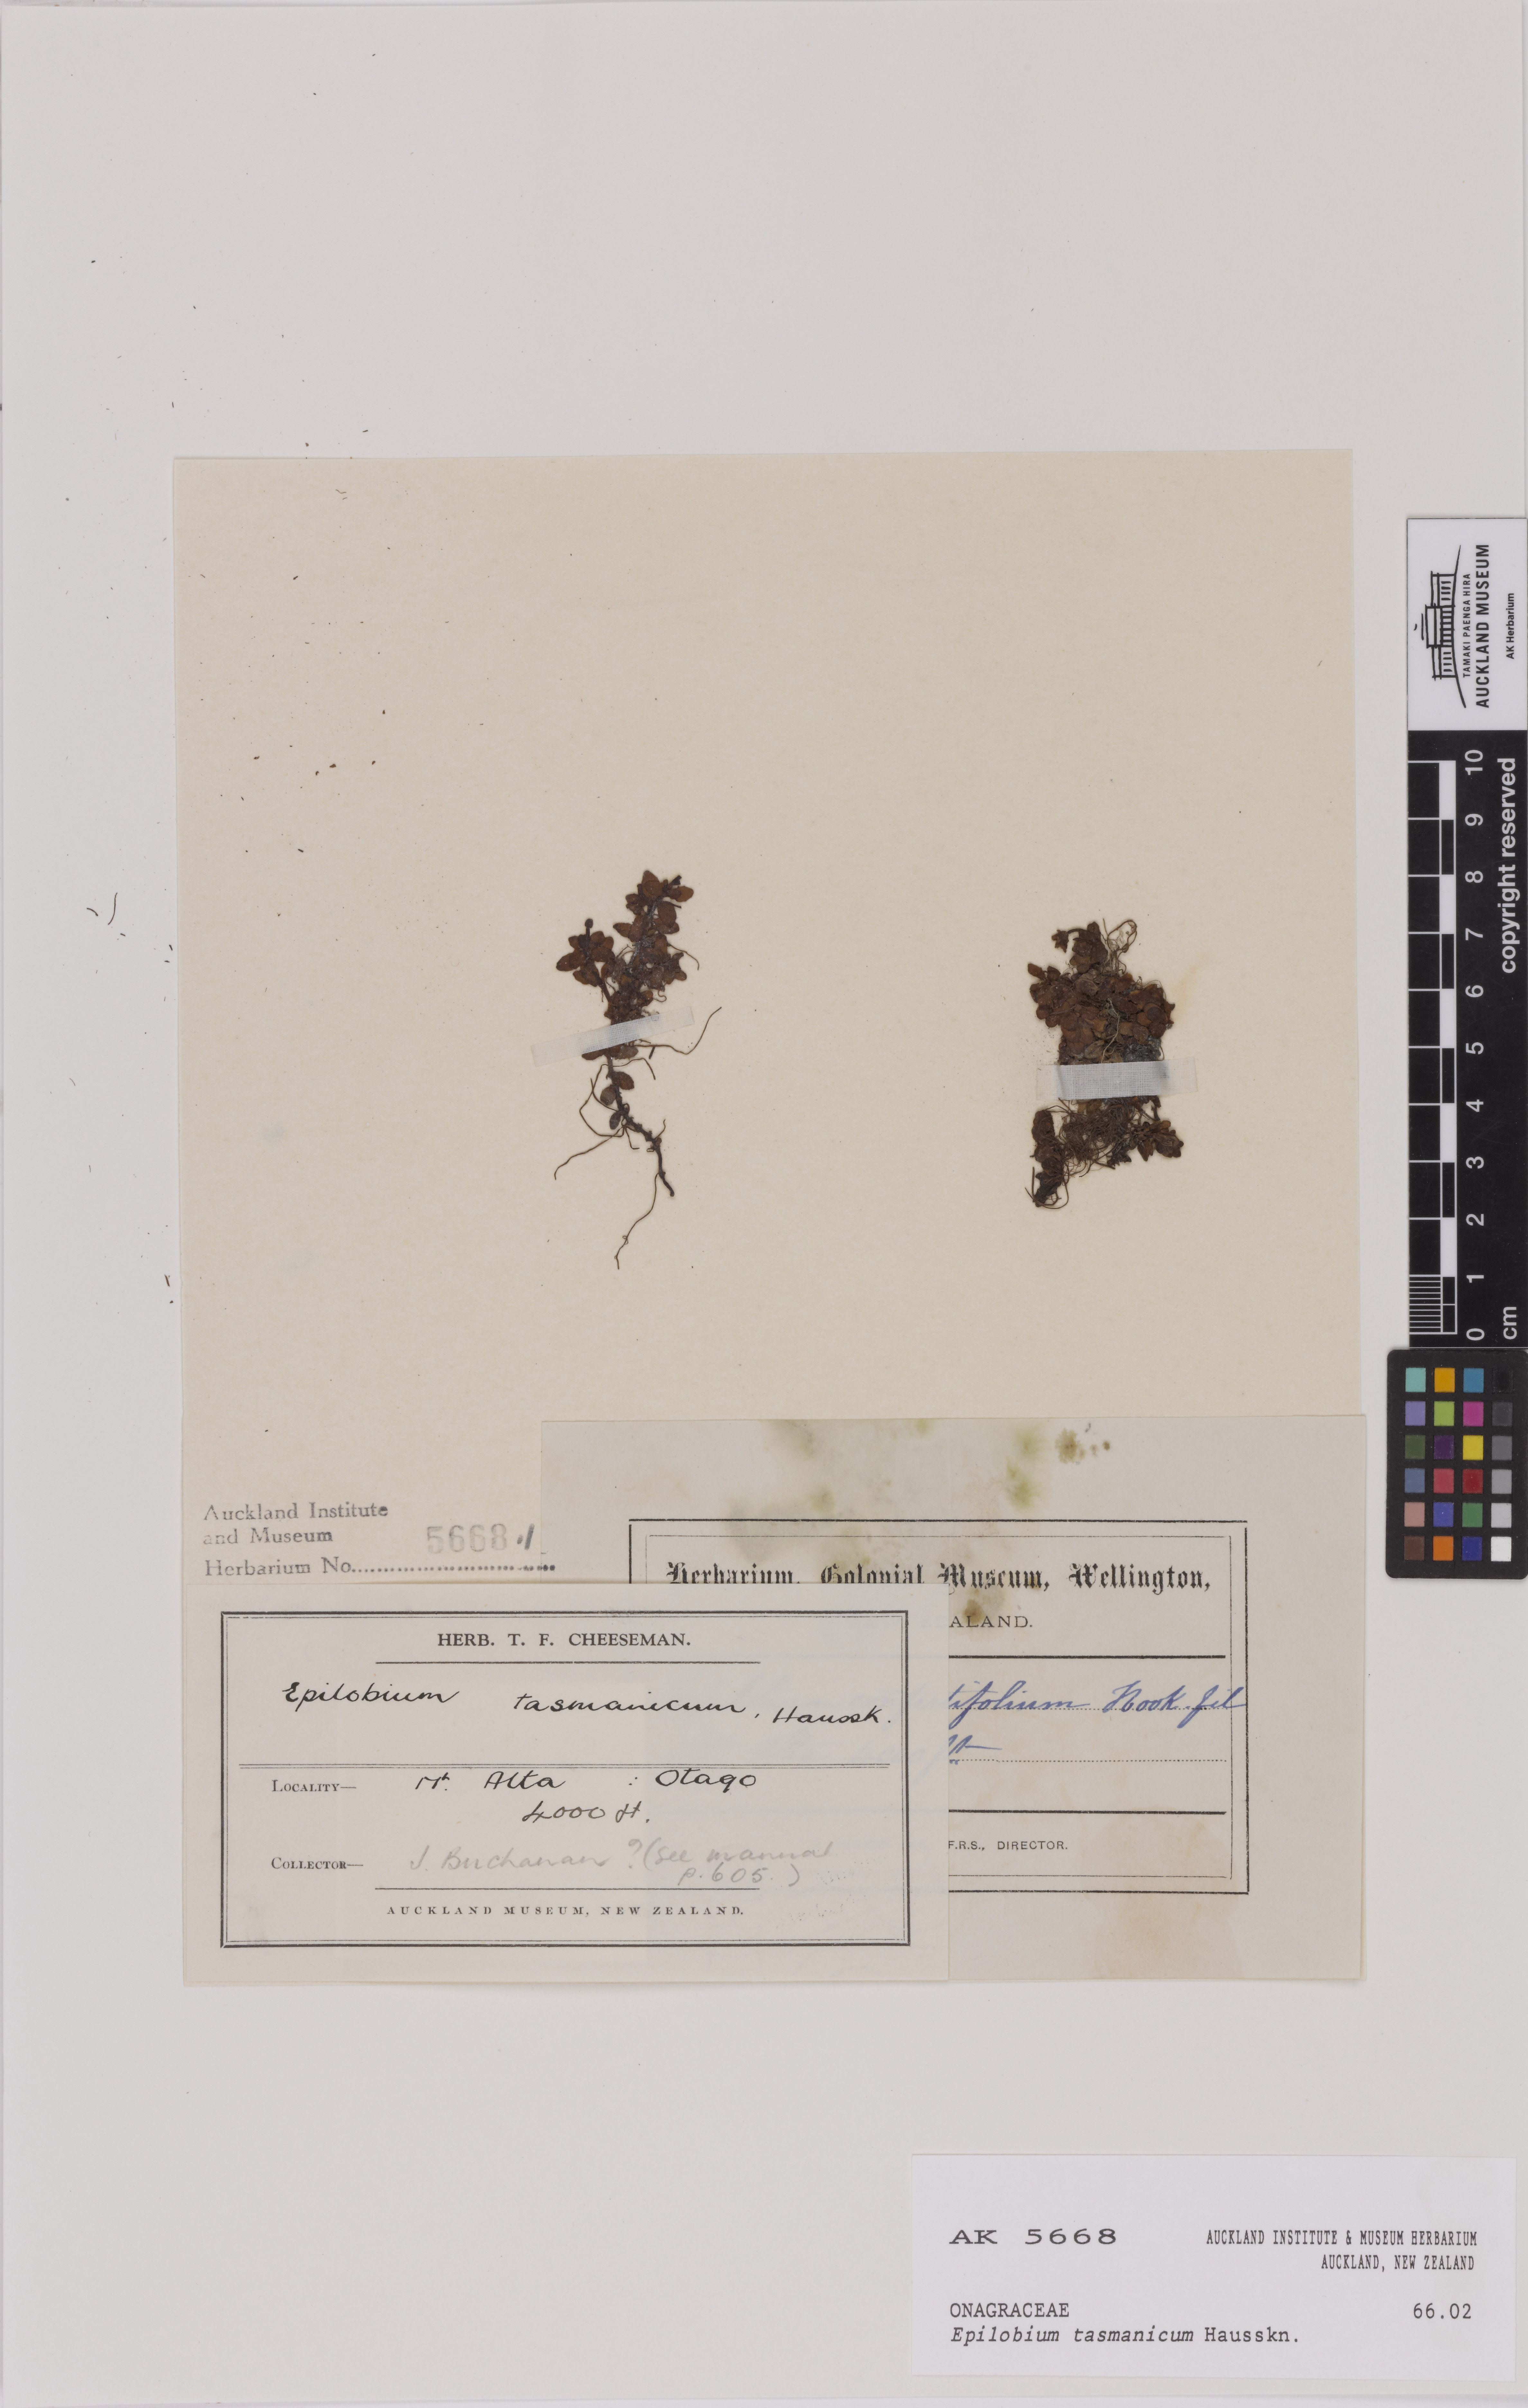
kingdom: Plantae
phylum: Tracheophyta
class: Magnoliopsida
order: Myrtales
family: Onagraceae
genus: Epilobium
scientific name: Epilobium tasmanicum
